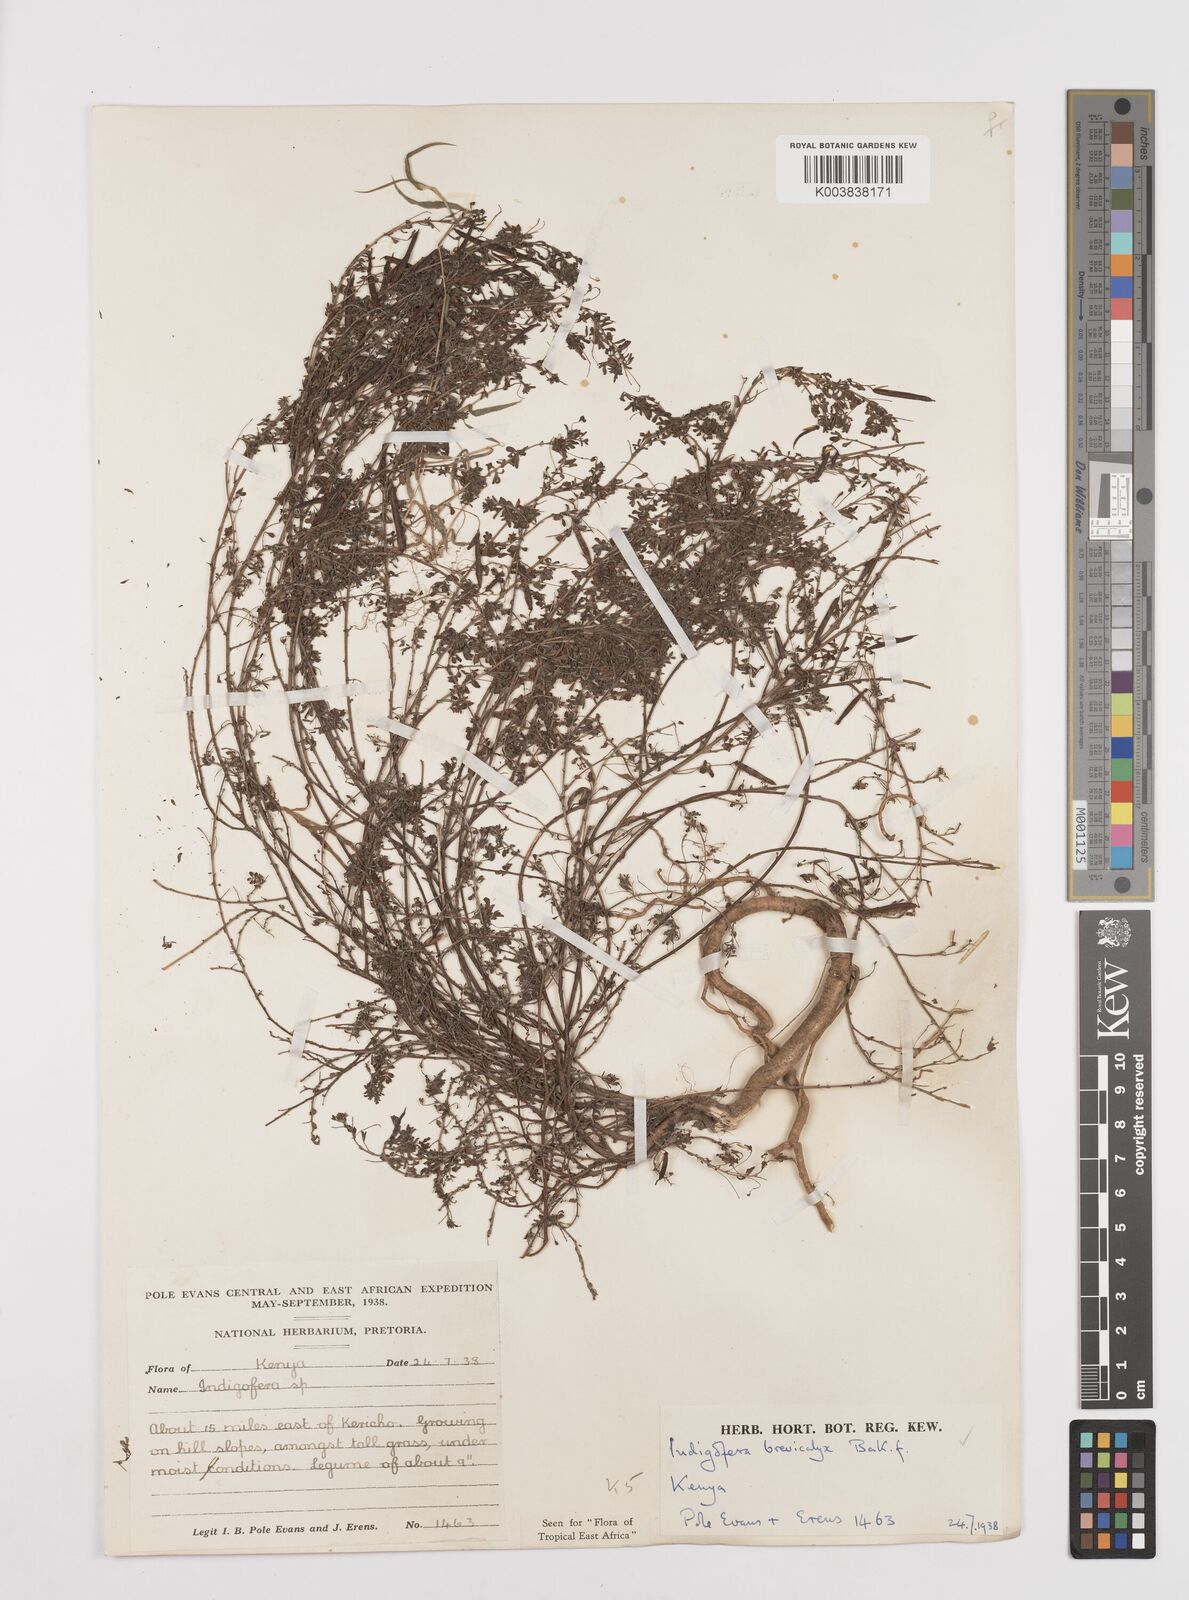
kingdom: Plantae
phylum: Tracheophyta
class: Magnoliopsida
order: Fabales
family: Fabaceae
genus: Indigofera
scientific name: Indigofera brevicalyx
